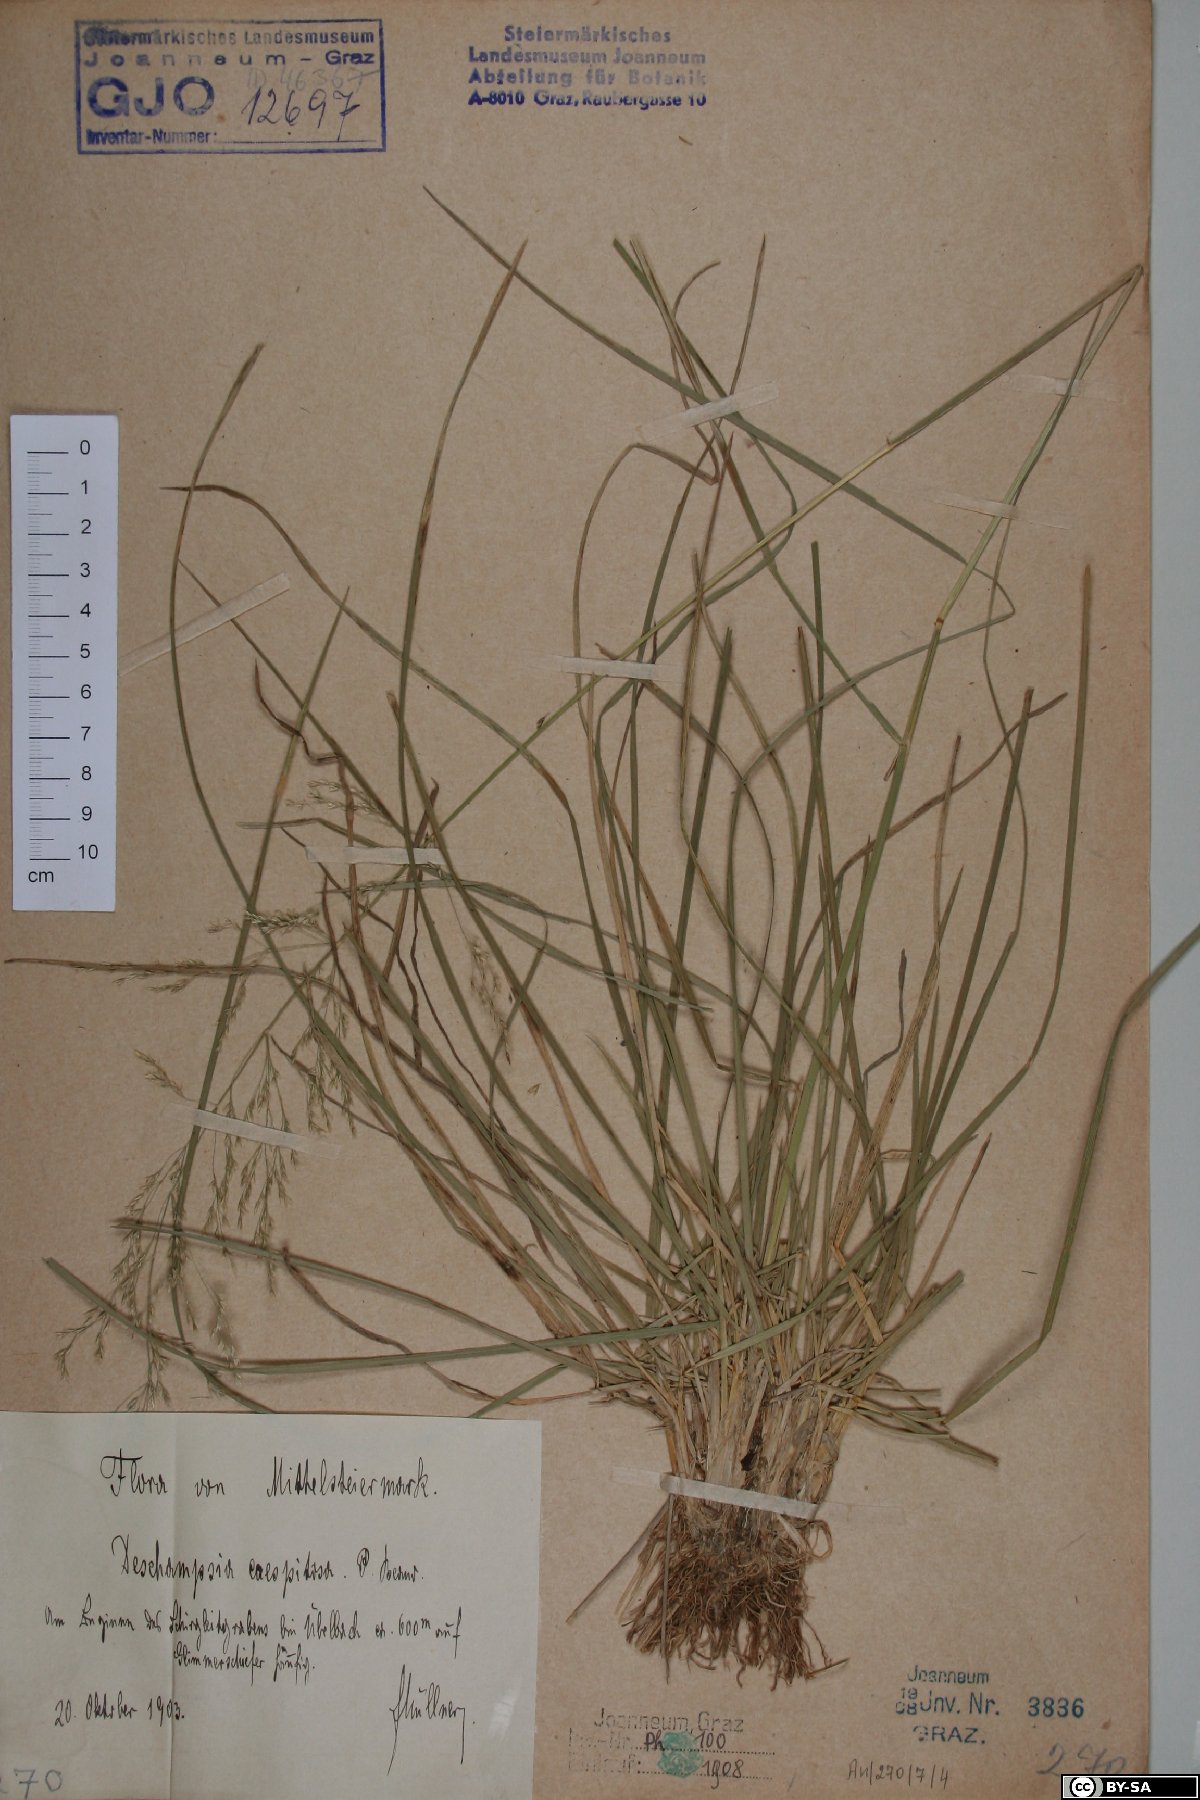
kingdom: Plantae
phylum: Tracheophyta
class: Liliopsida
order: Poales
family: Poaceae
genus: Deschampsia
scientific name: Deschampsia cespitosa
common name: Tufted hair-grass
